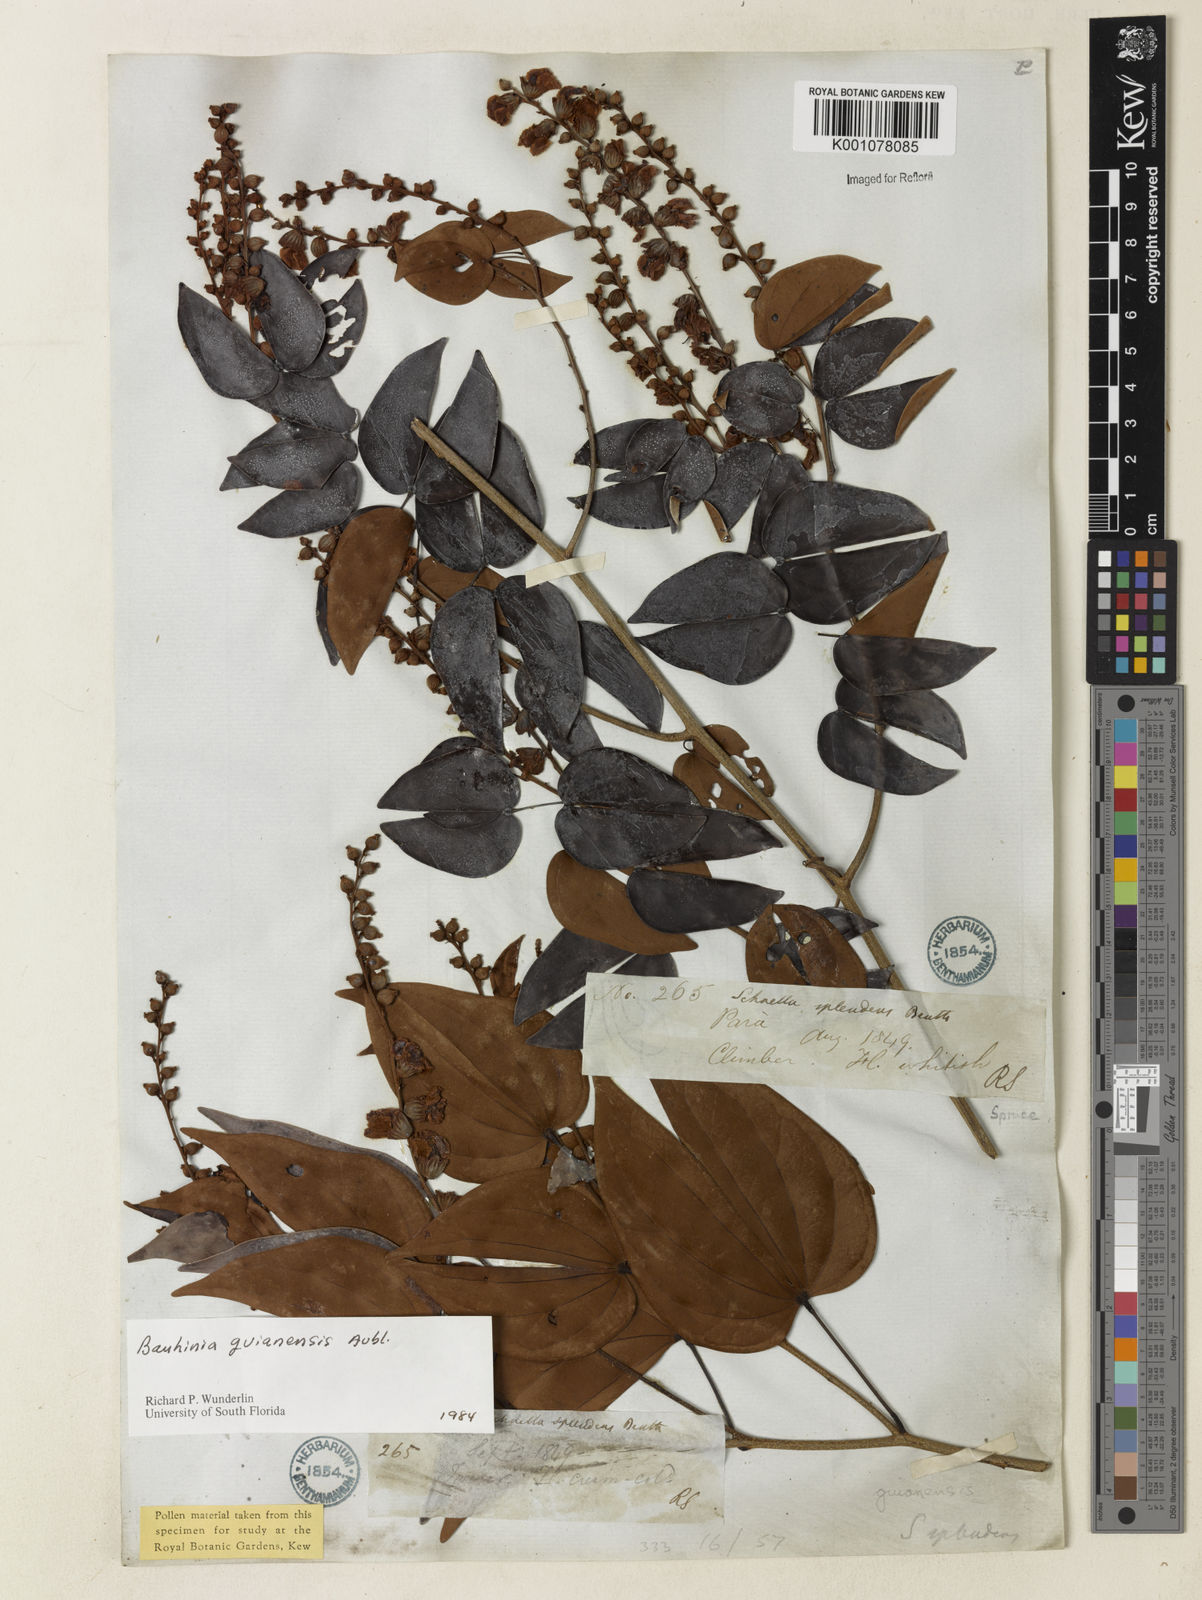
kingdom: Plantae
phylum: Tracheophyta
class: Magnoliopsida
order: Fabales
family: Fabaceae
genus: Schnella
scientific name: Schnella guianensis
